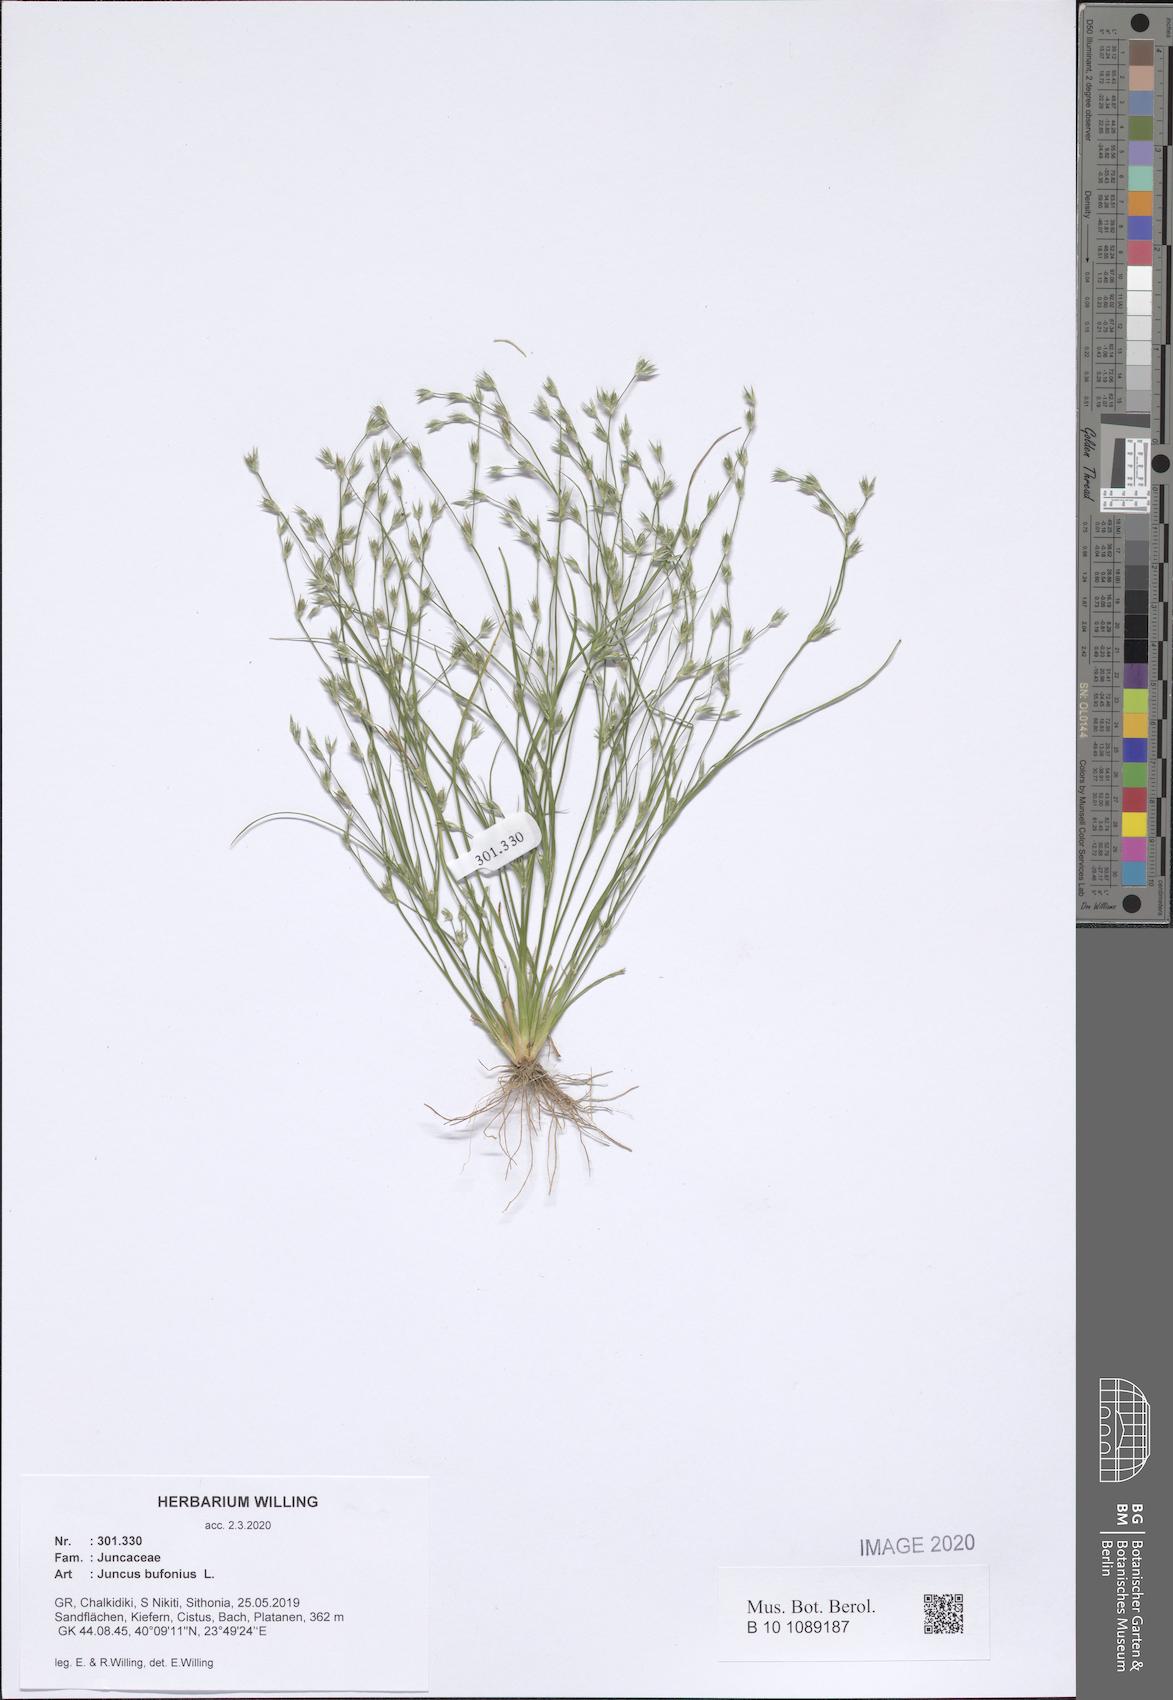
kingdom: Plantae
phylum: Tracheophyta
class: Liliopsida
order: Poales
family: Juncaceae
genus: Juncus
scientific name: Juncus bufonius
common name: Toad rush
